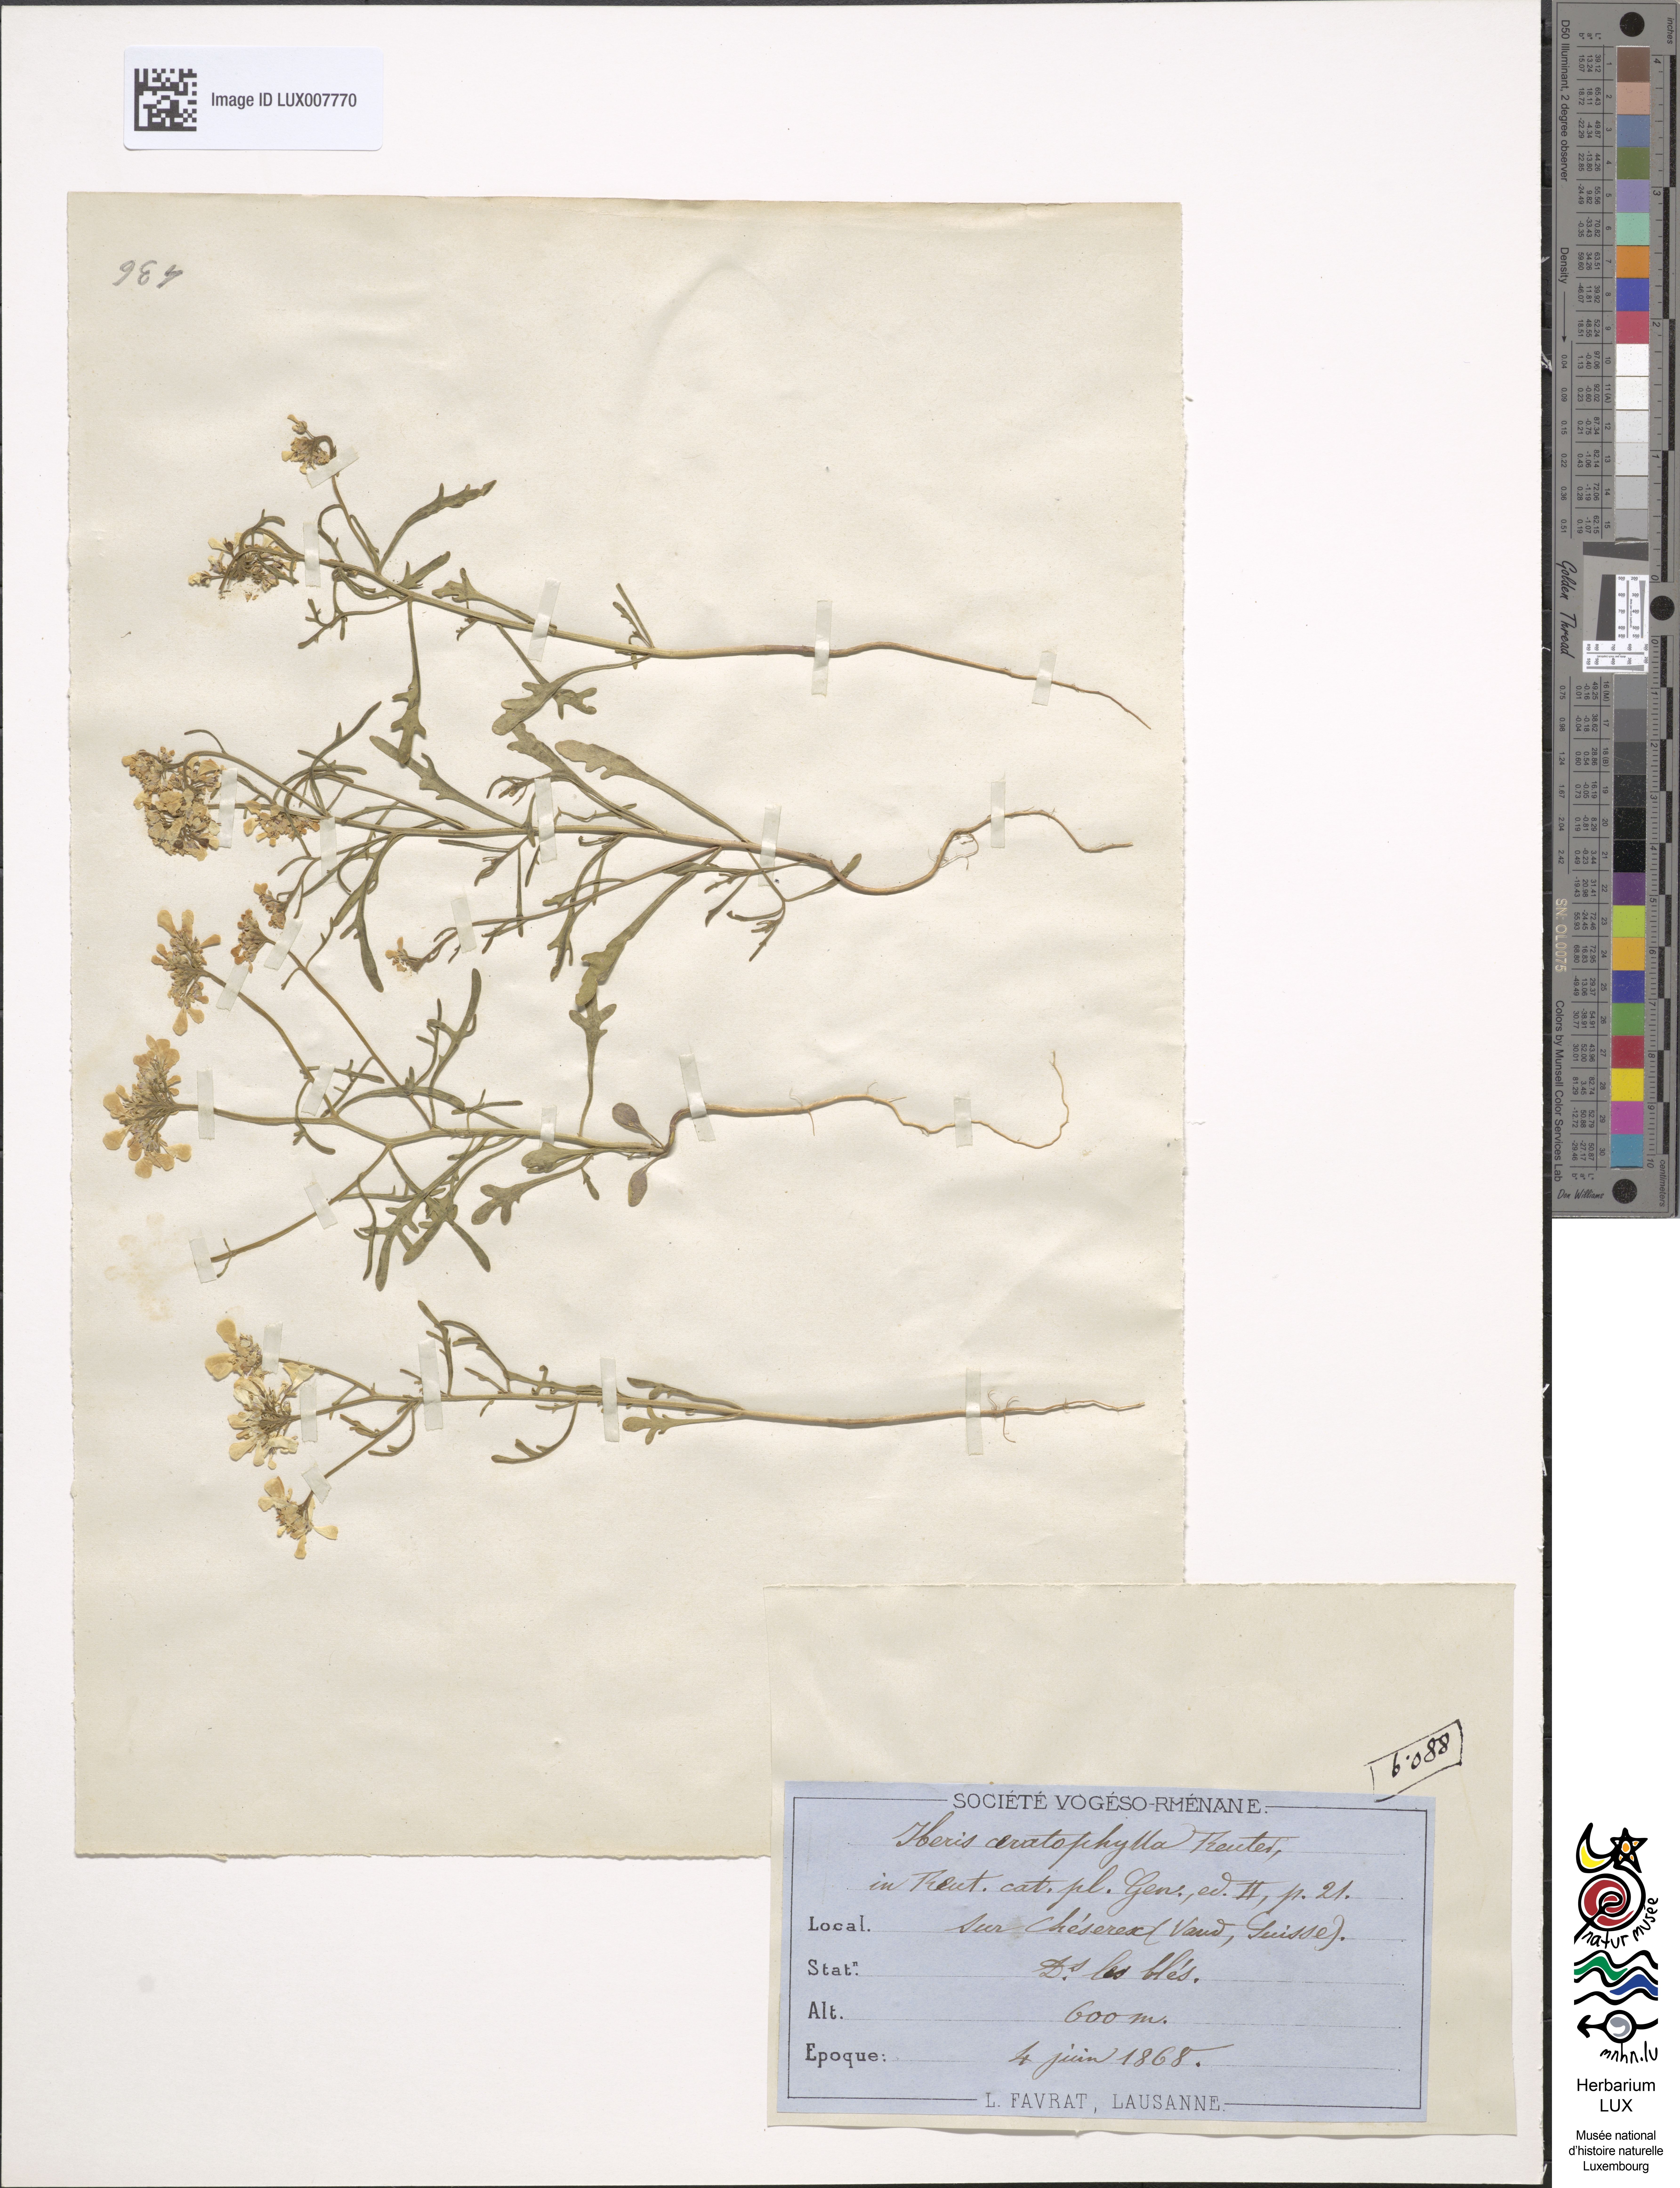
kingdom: Plantae
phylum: Tracheophyta
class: Magnoliopsida
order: Brassicales
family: Brassicaceae
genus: Iberis
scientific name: Iberis amara
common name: Annual candytuft
